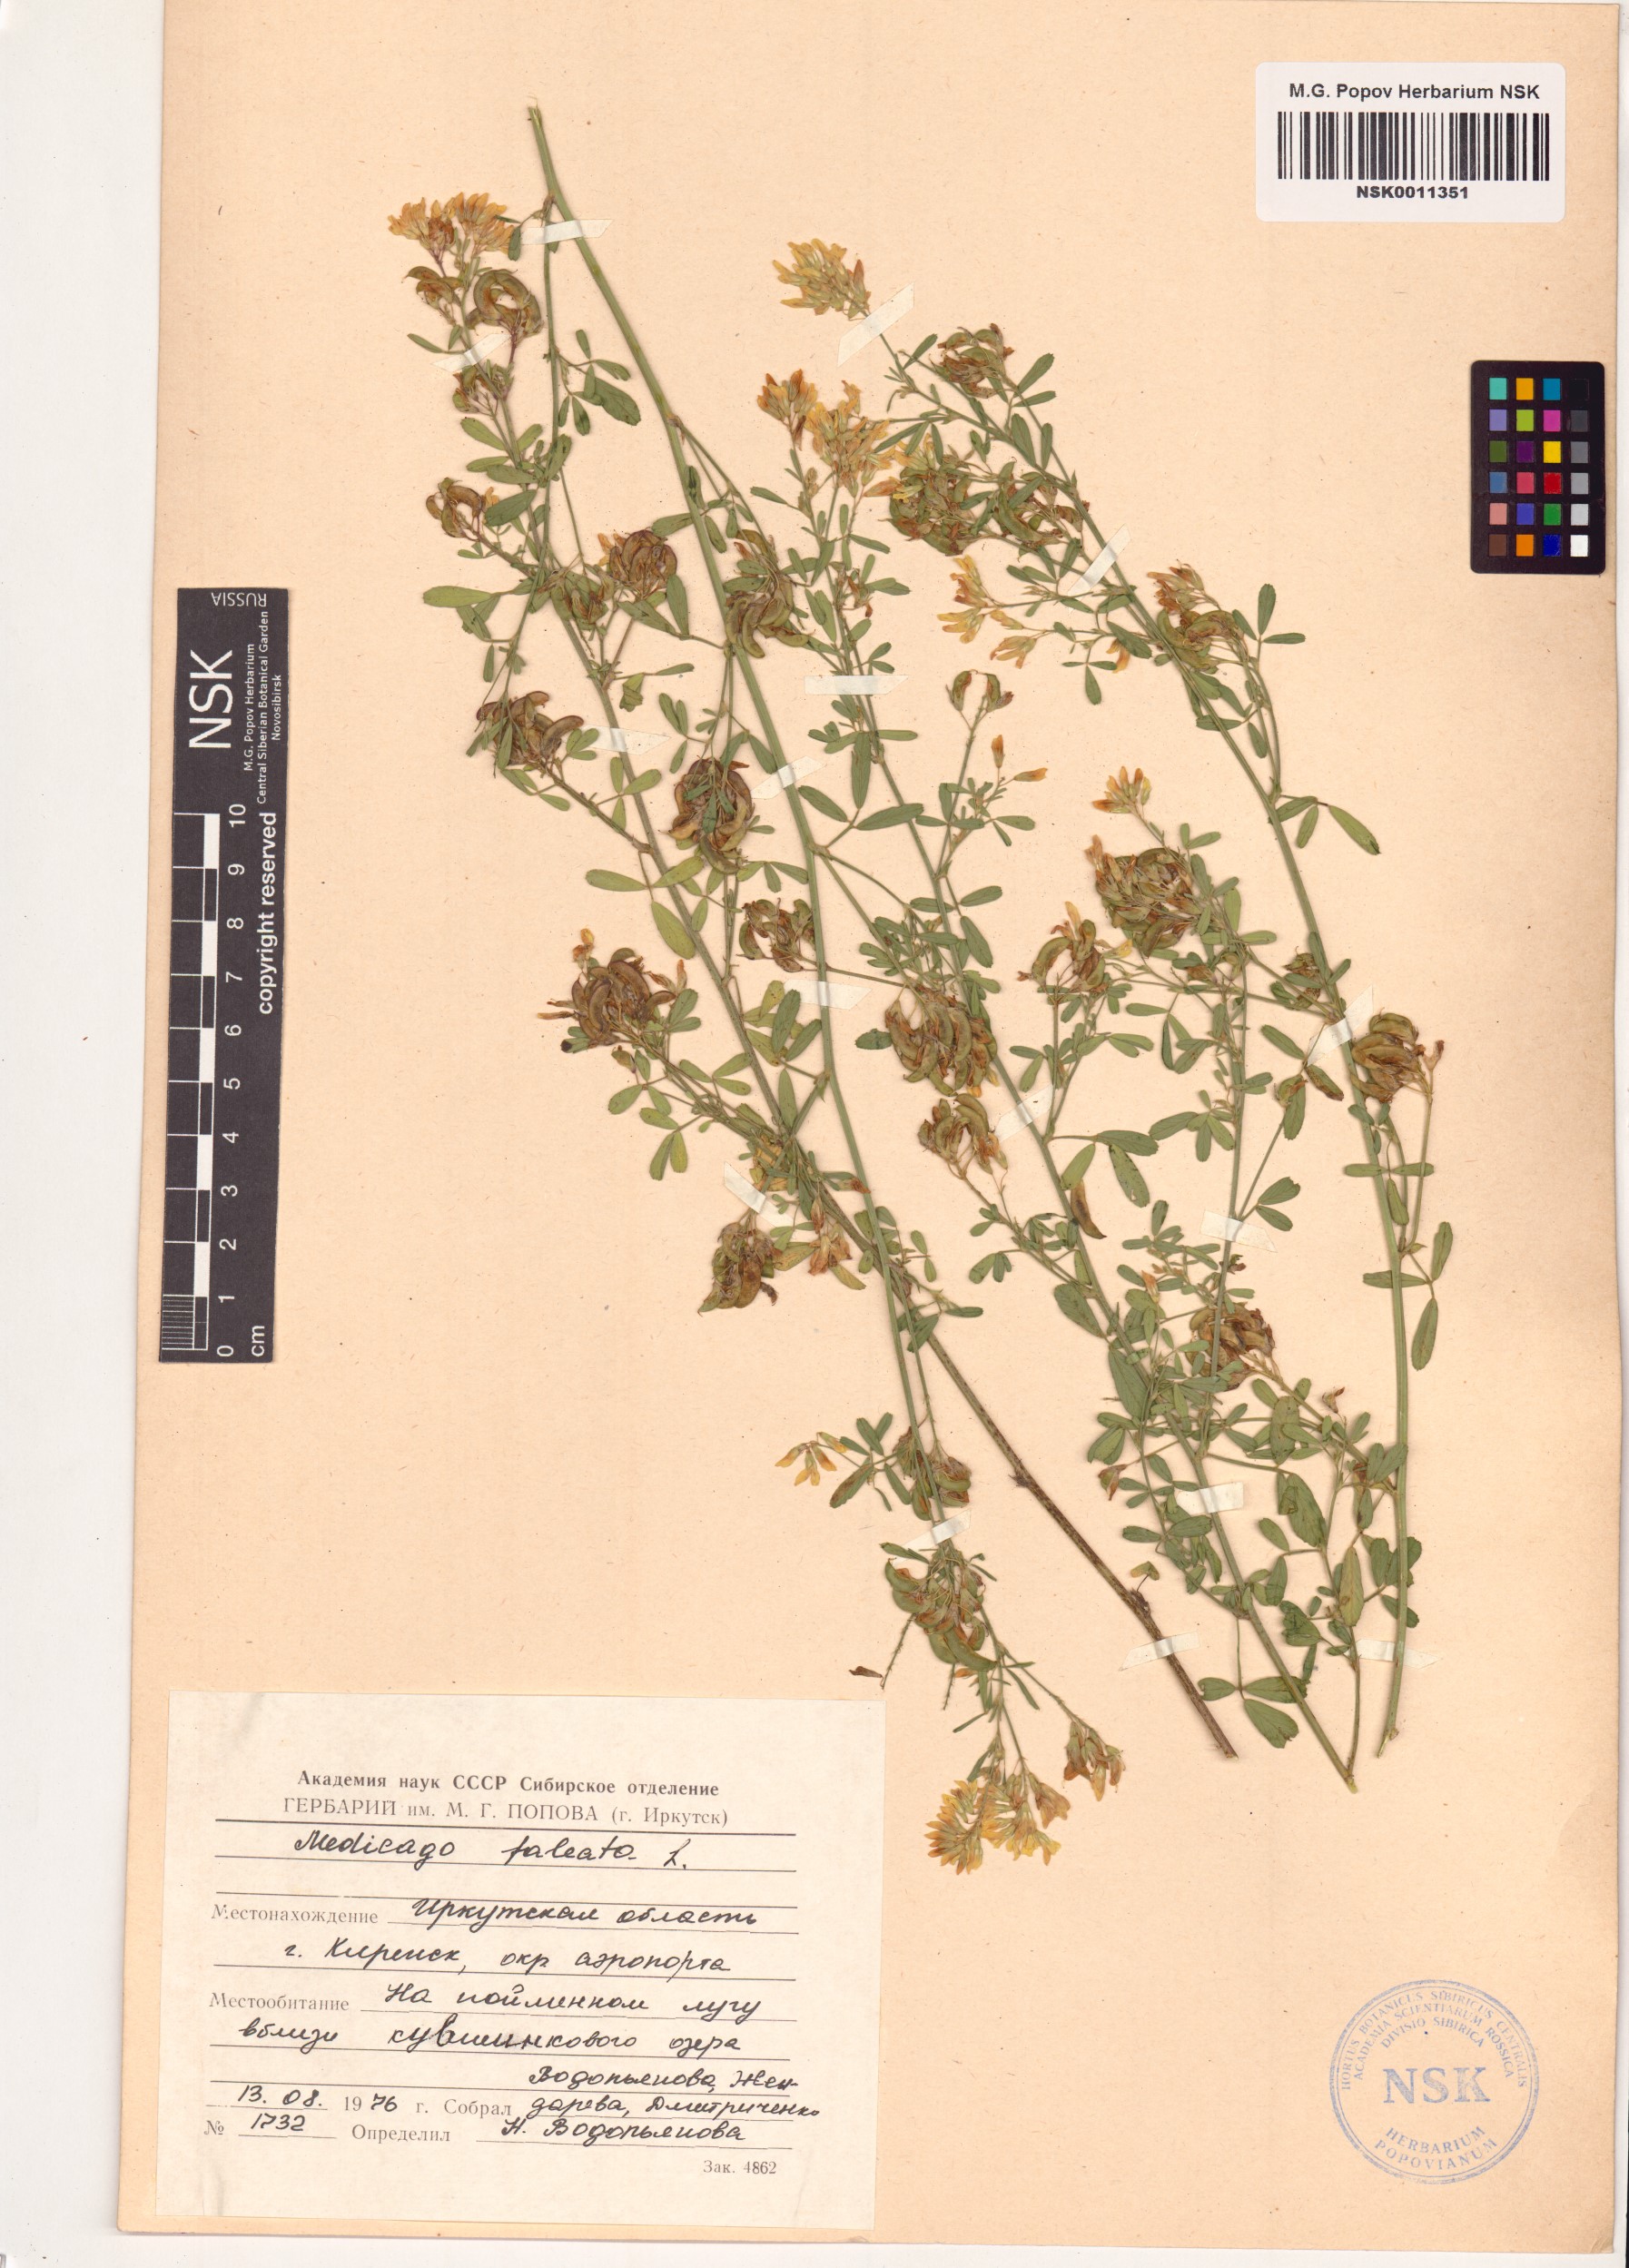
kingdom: Plantae
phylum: Tracheophyta
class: Magnoliopsida
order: Fabales
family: Fabaceae
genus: Medicago
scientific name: Medicago falcata
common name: Sickle medick
